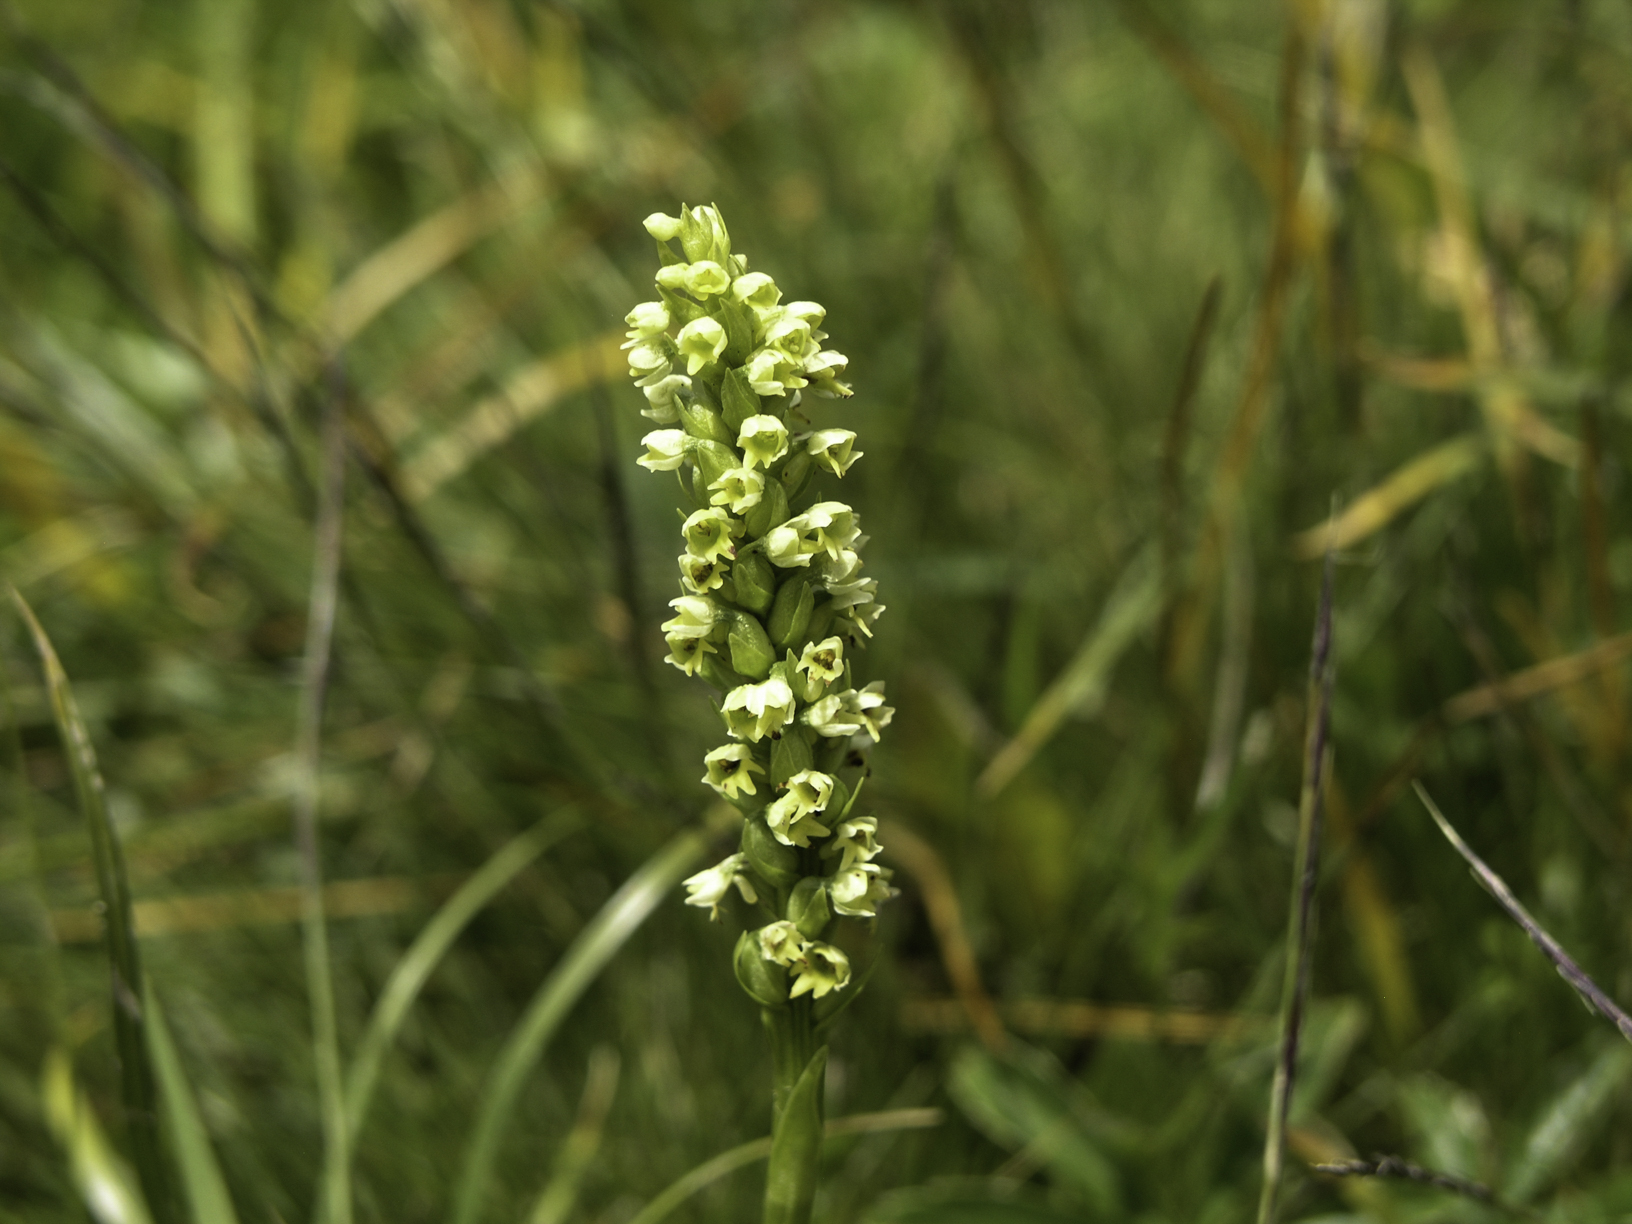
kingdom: Plantae
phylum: Tracheophyta
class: Liliopsida
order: Asparagales
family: Orchidaceae
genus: Pseudorchis
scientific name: Pseudorchis albida
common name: Small-white orchid
